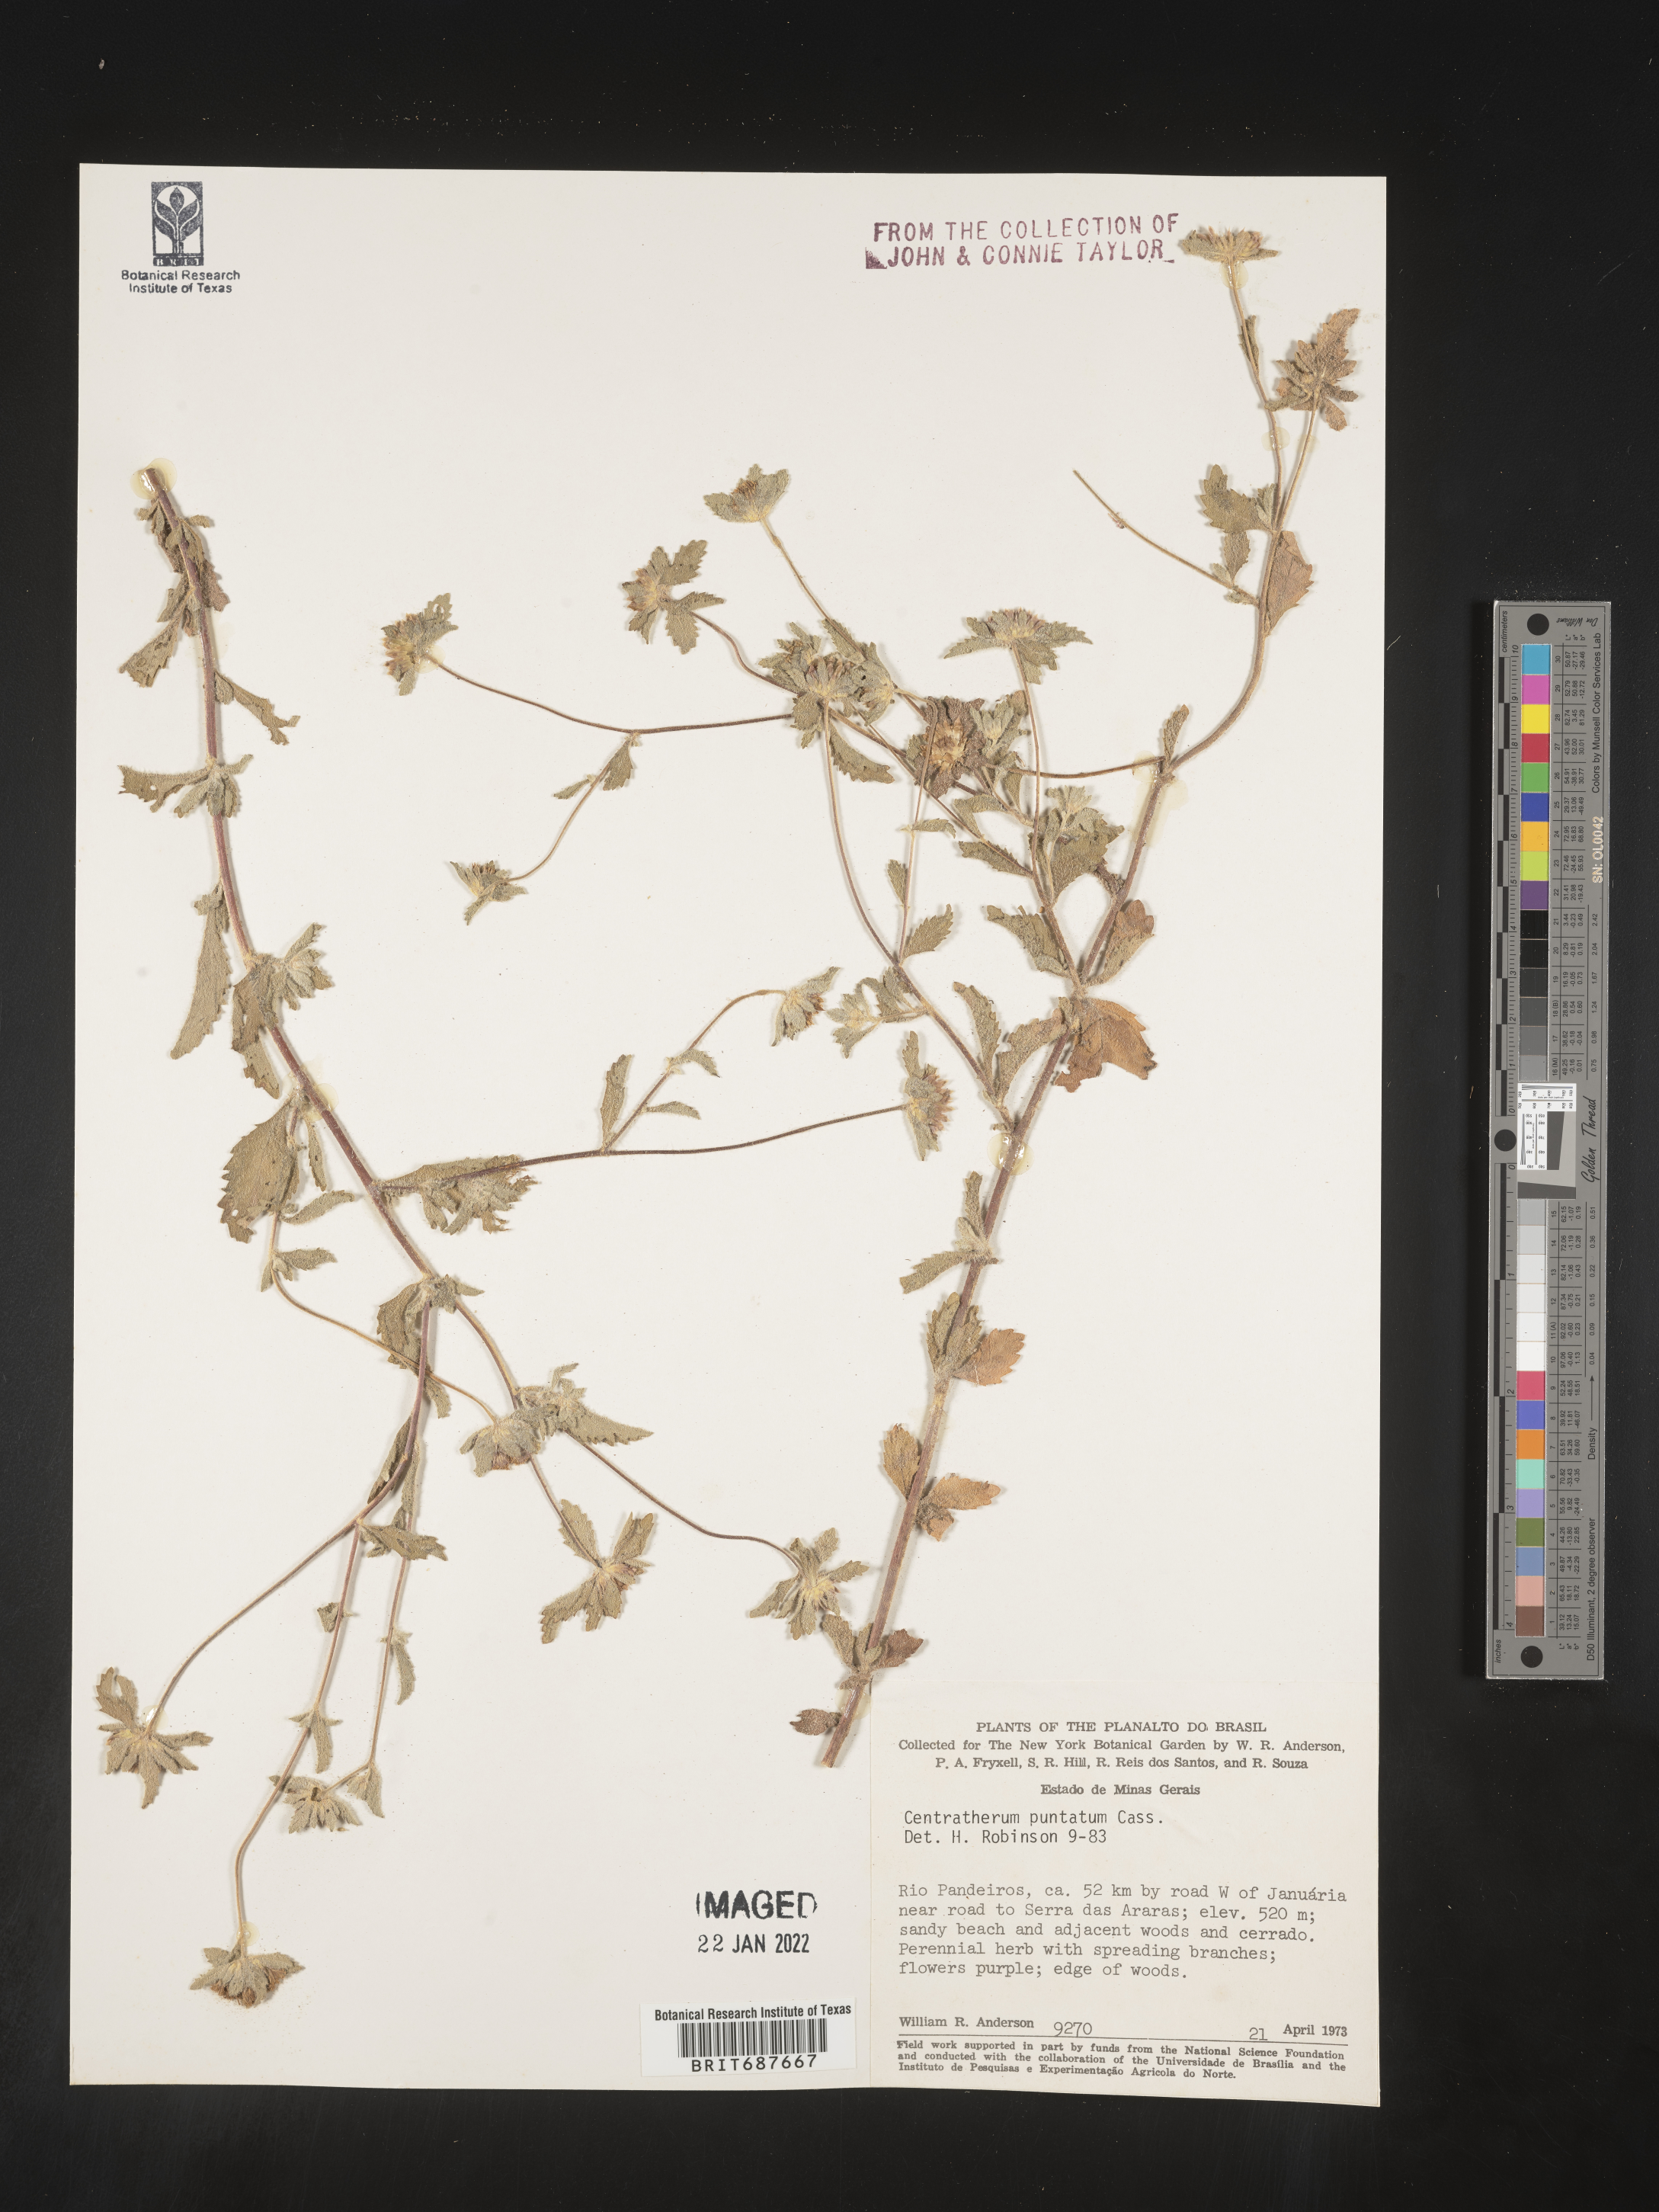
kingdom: Plantae
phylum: Tracheophyta
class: Magnoliopsida
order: Asterales
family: Asteraceae
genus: Centratherum
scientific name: Centratherum
